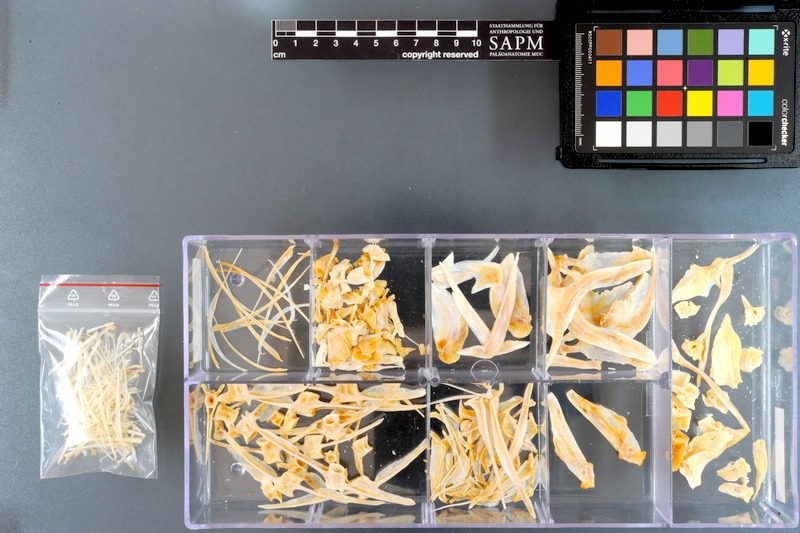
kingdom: Animalia
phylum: Chordata
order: Perciformes
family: Acanthuridae
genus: Acanthurus
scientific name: Acanthurus gahhm
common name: Black surgeonfish
